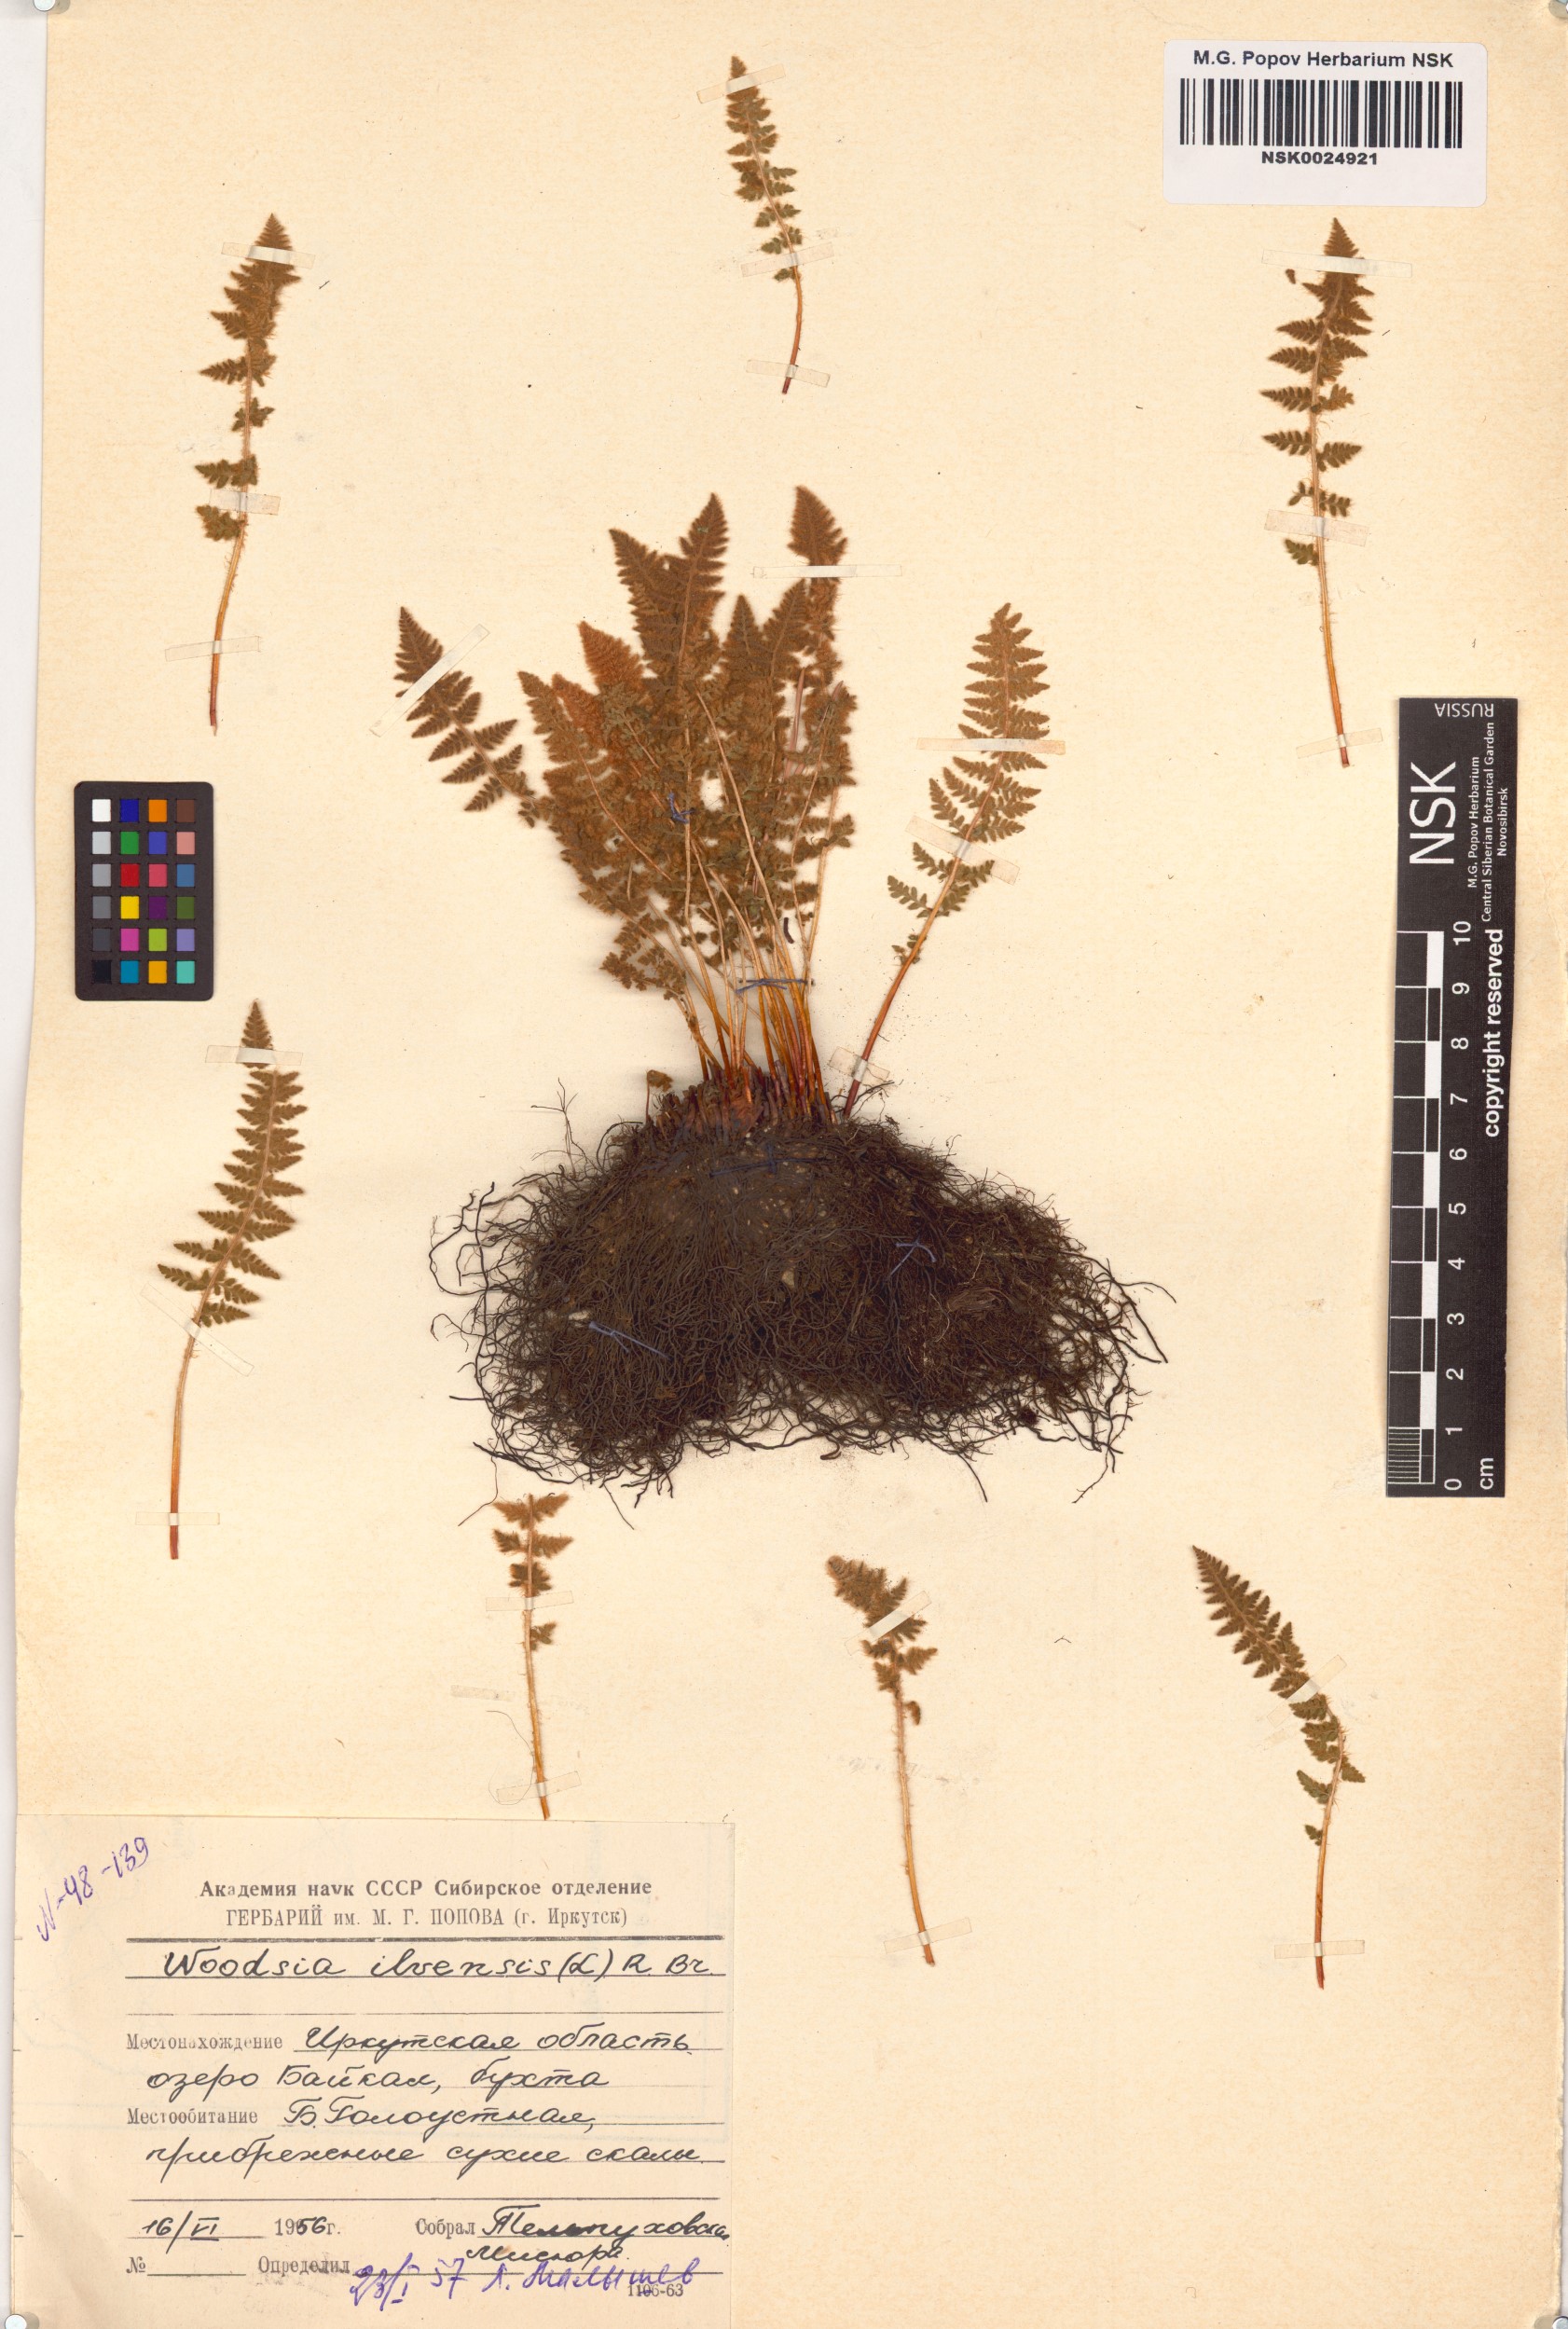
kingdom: Plantae
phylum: Tracheophyta
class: Polypodiopsida
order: Polypodiales
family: Woodsiaceae
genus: Woodsia
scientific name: Woodsia ilvensis
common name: Fragrant woodsia
